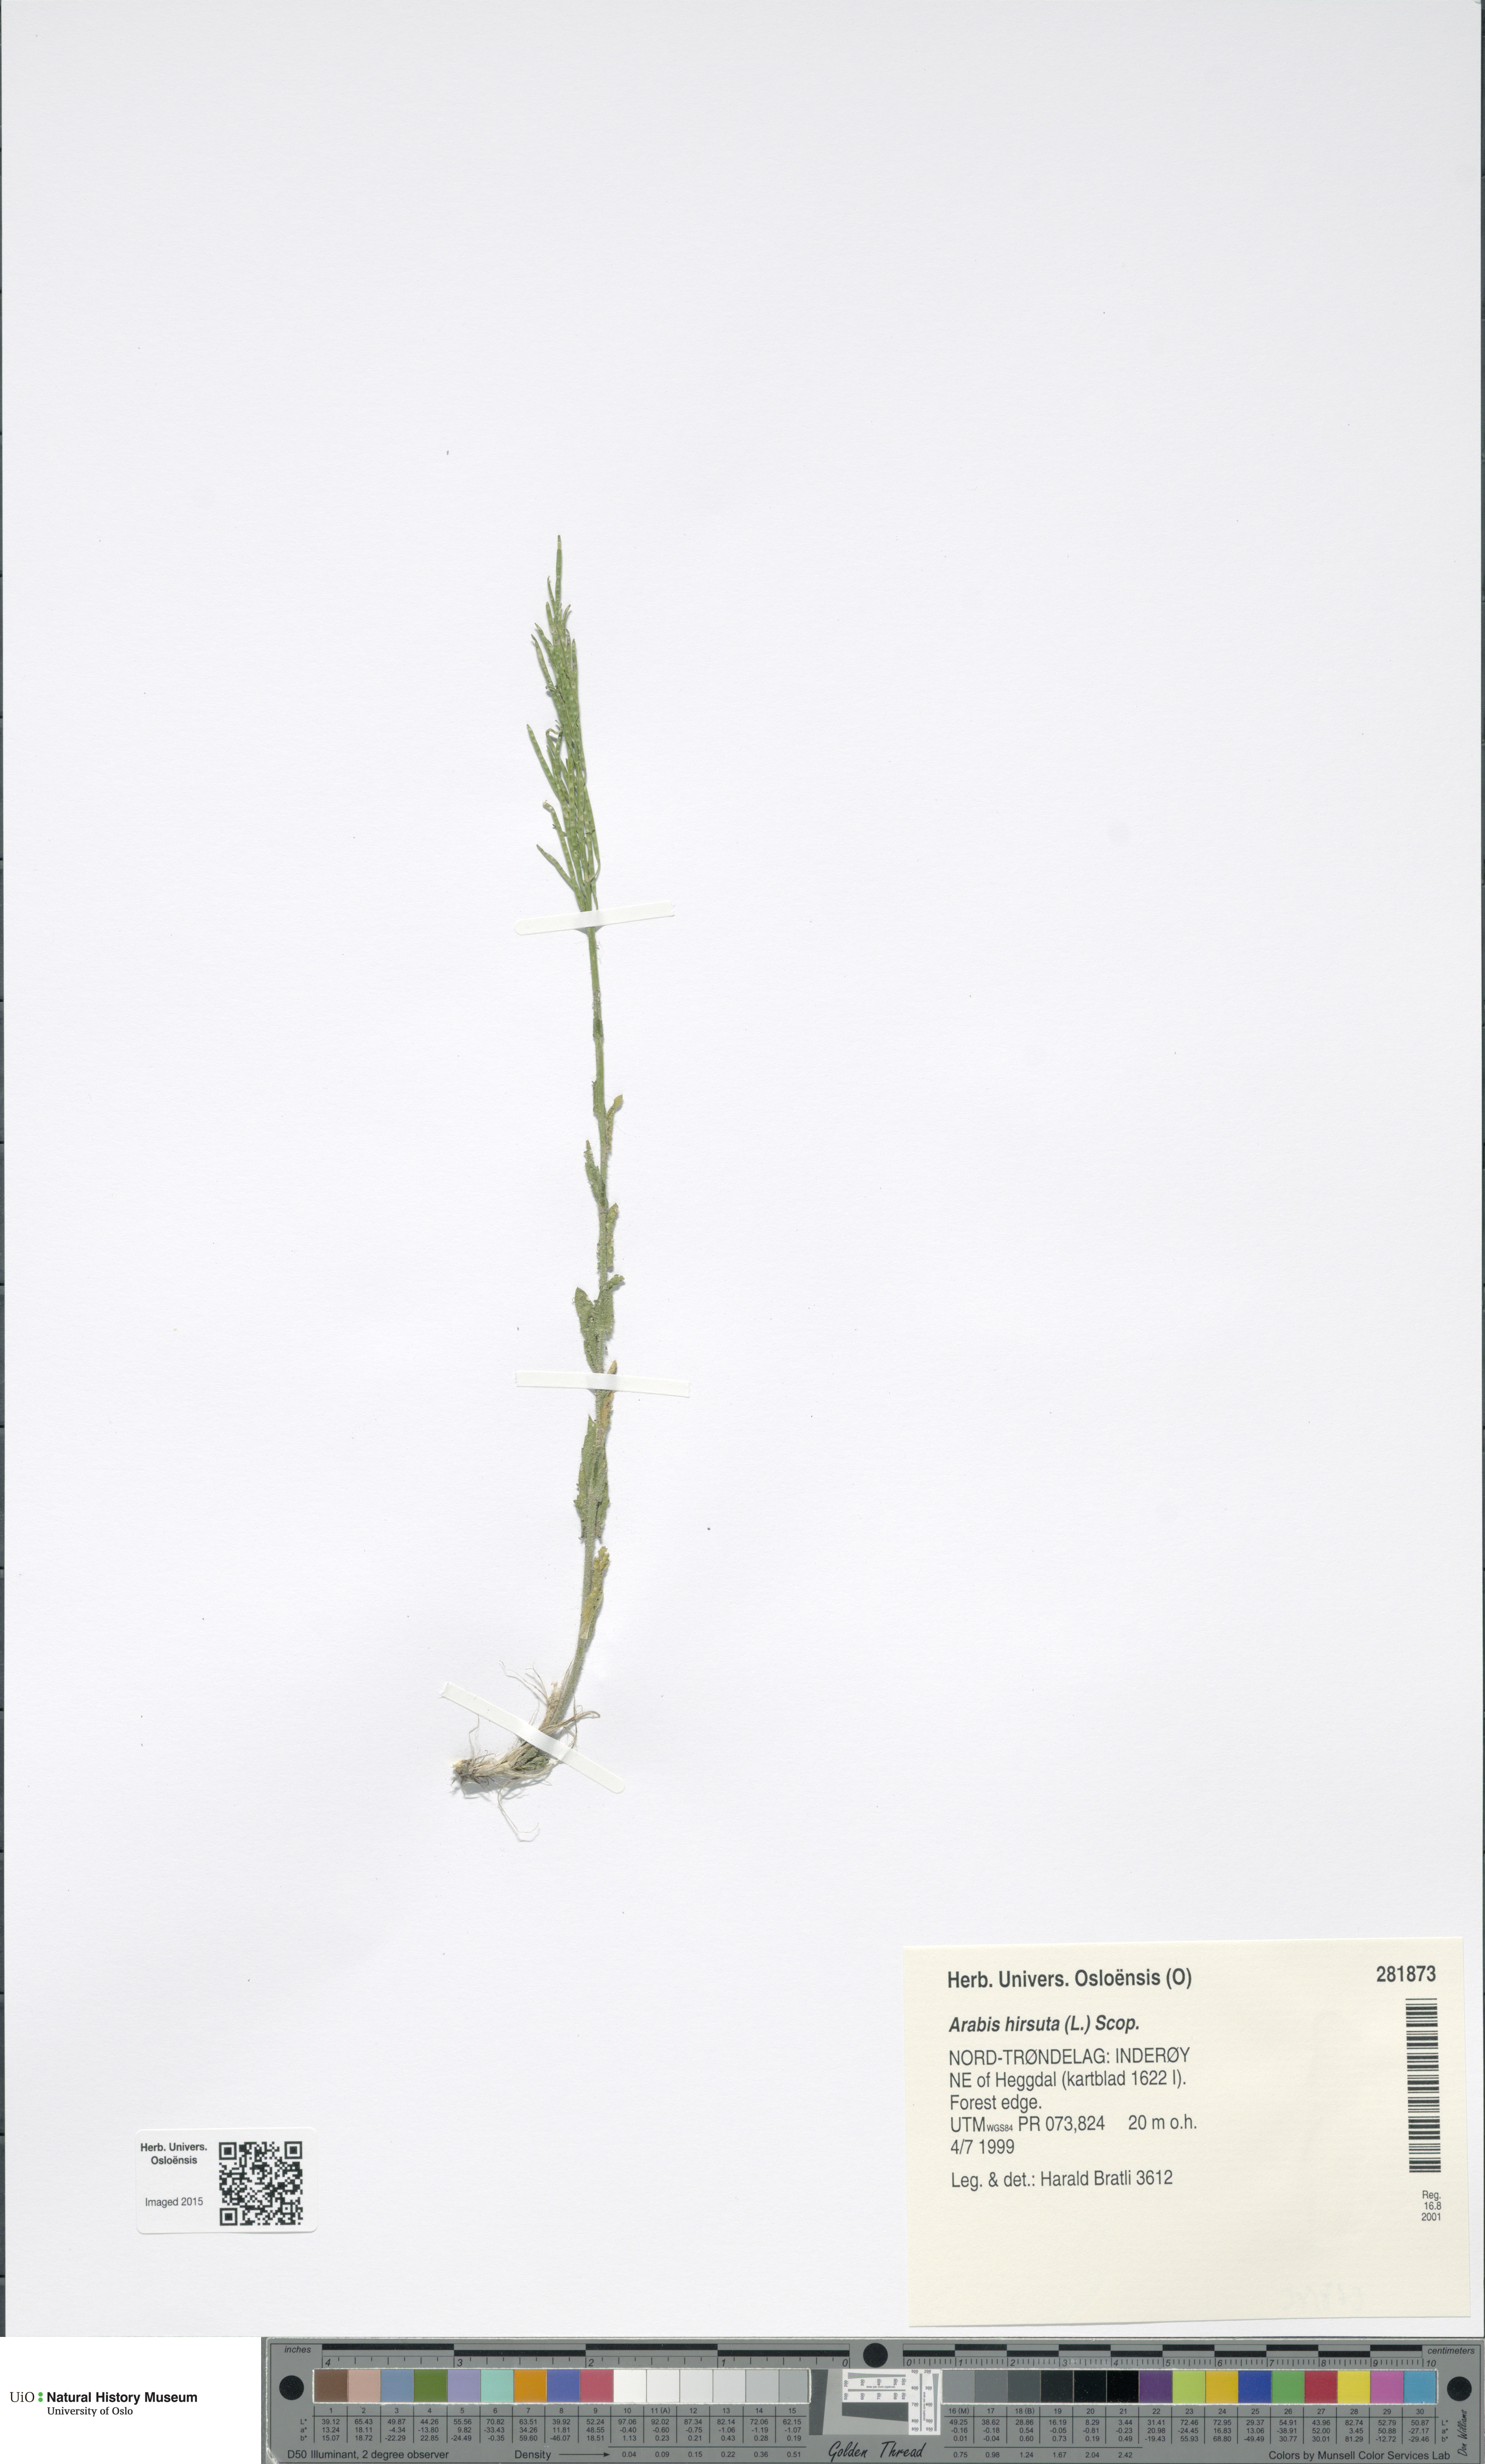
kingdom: Plantae
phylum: Tracheophyta
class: Magnoliopsida
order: Brassicales
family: Brassicaceae
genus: Arabis
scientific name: Arabis hirsuta
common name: Hairy rock-cress
